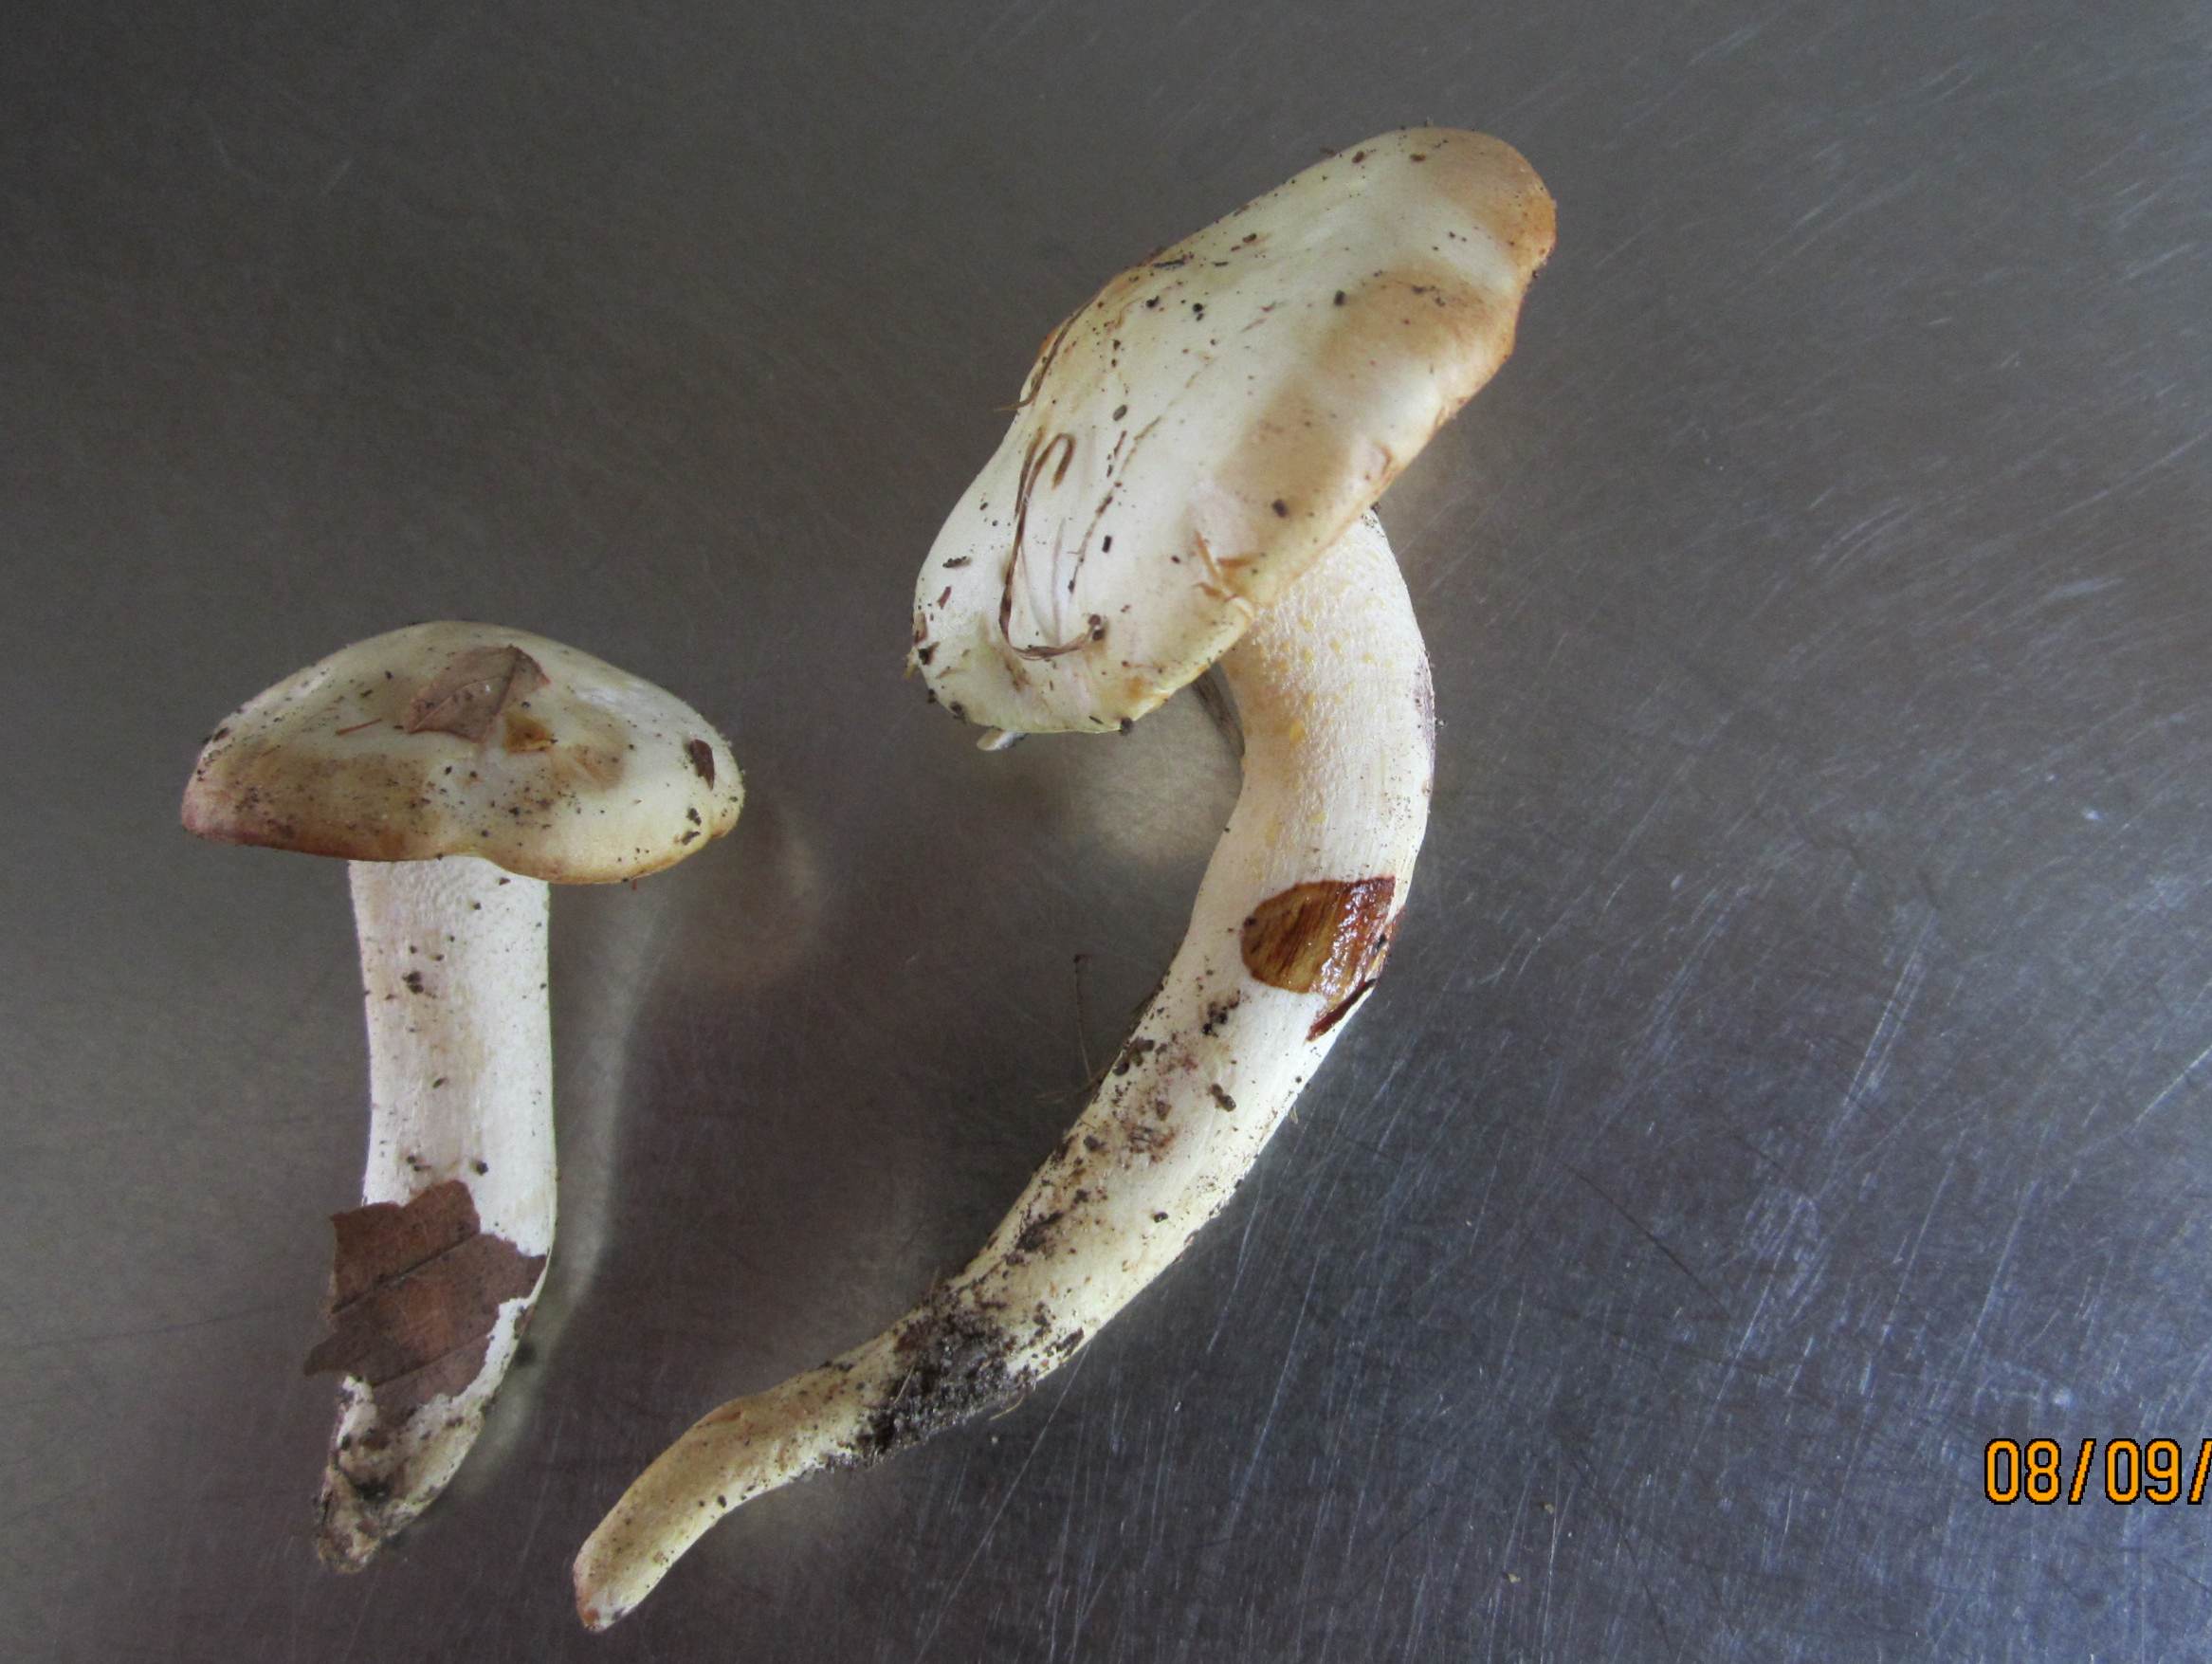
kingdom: Fungi
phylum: Basidiomycota
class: Agaricomycetes
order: Agaricales
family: Hygrophoraceae
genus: Hygrophorus
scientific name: Hygrophorus chrysodon
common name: gulfnugget sneglehat
